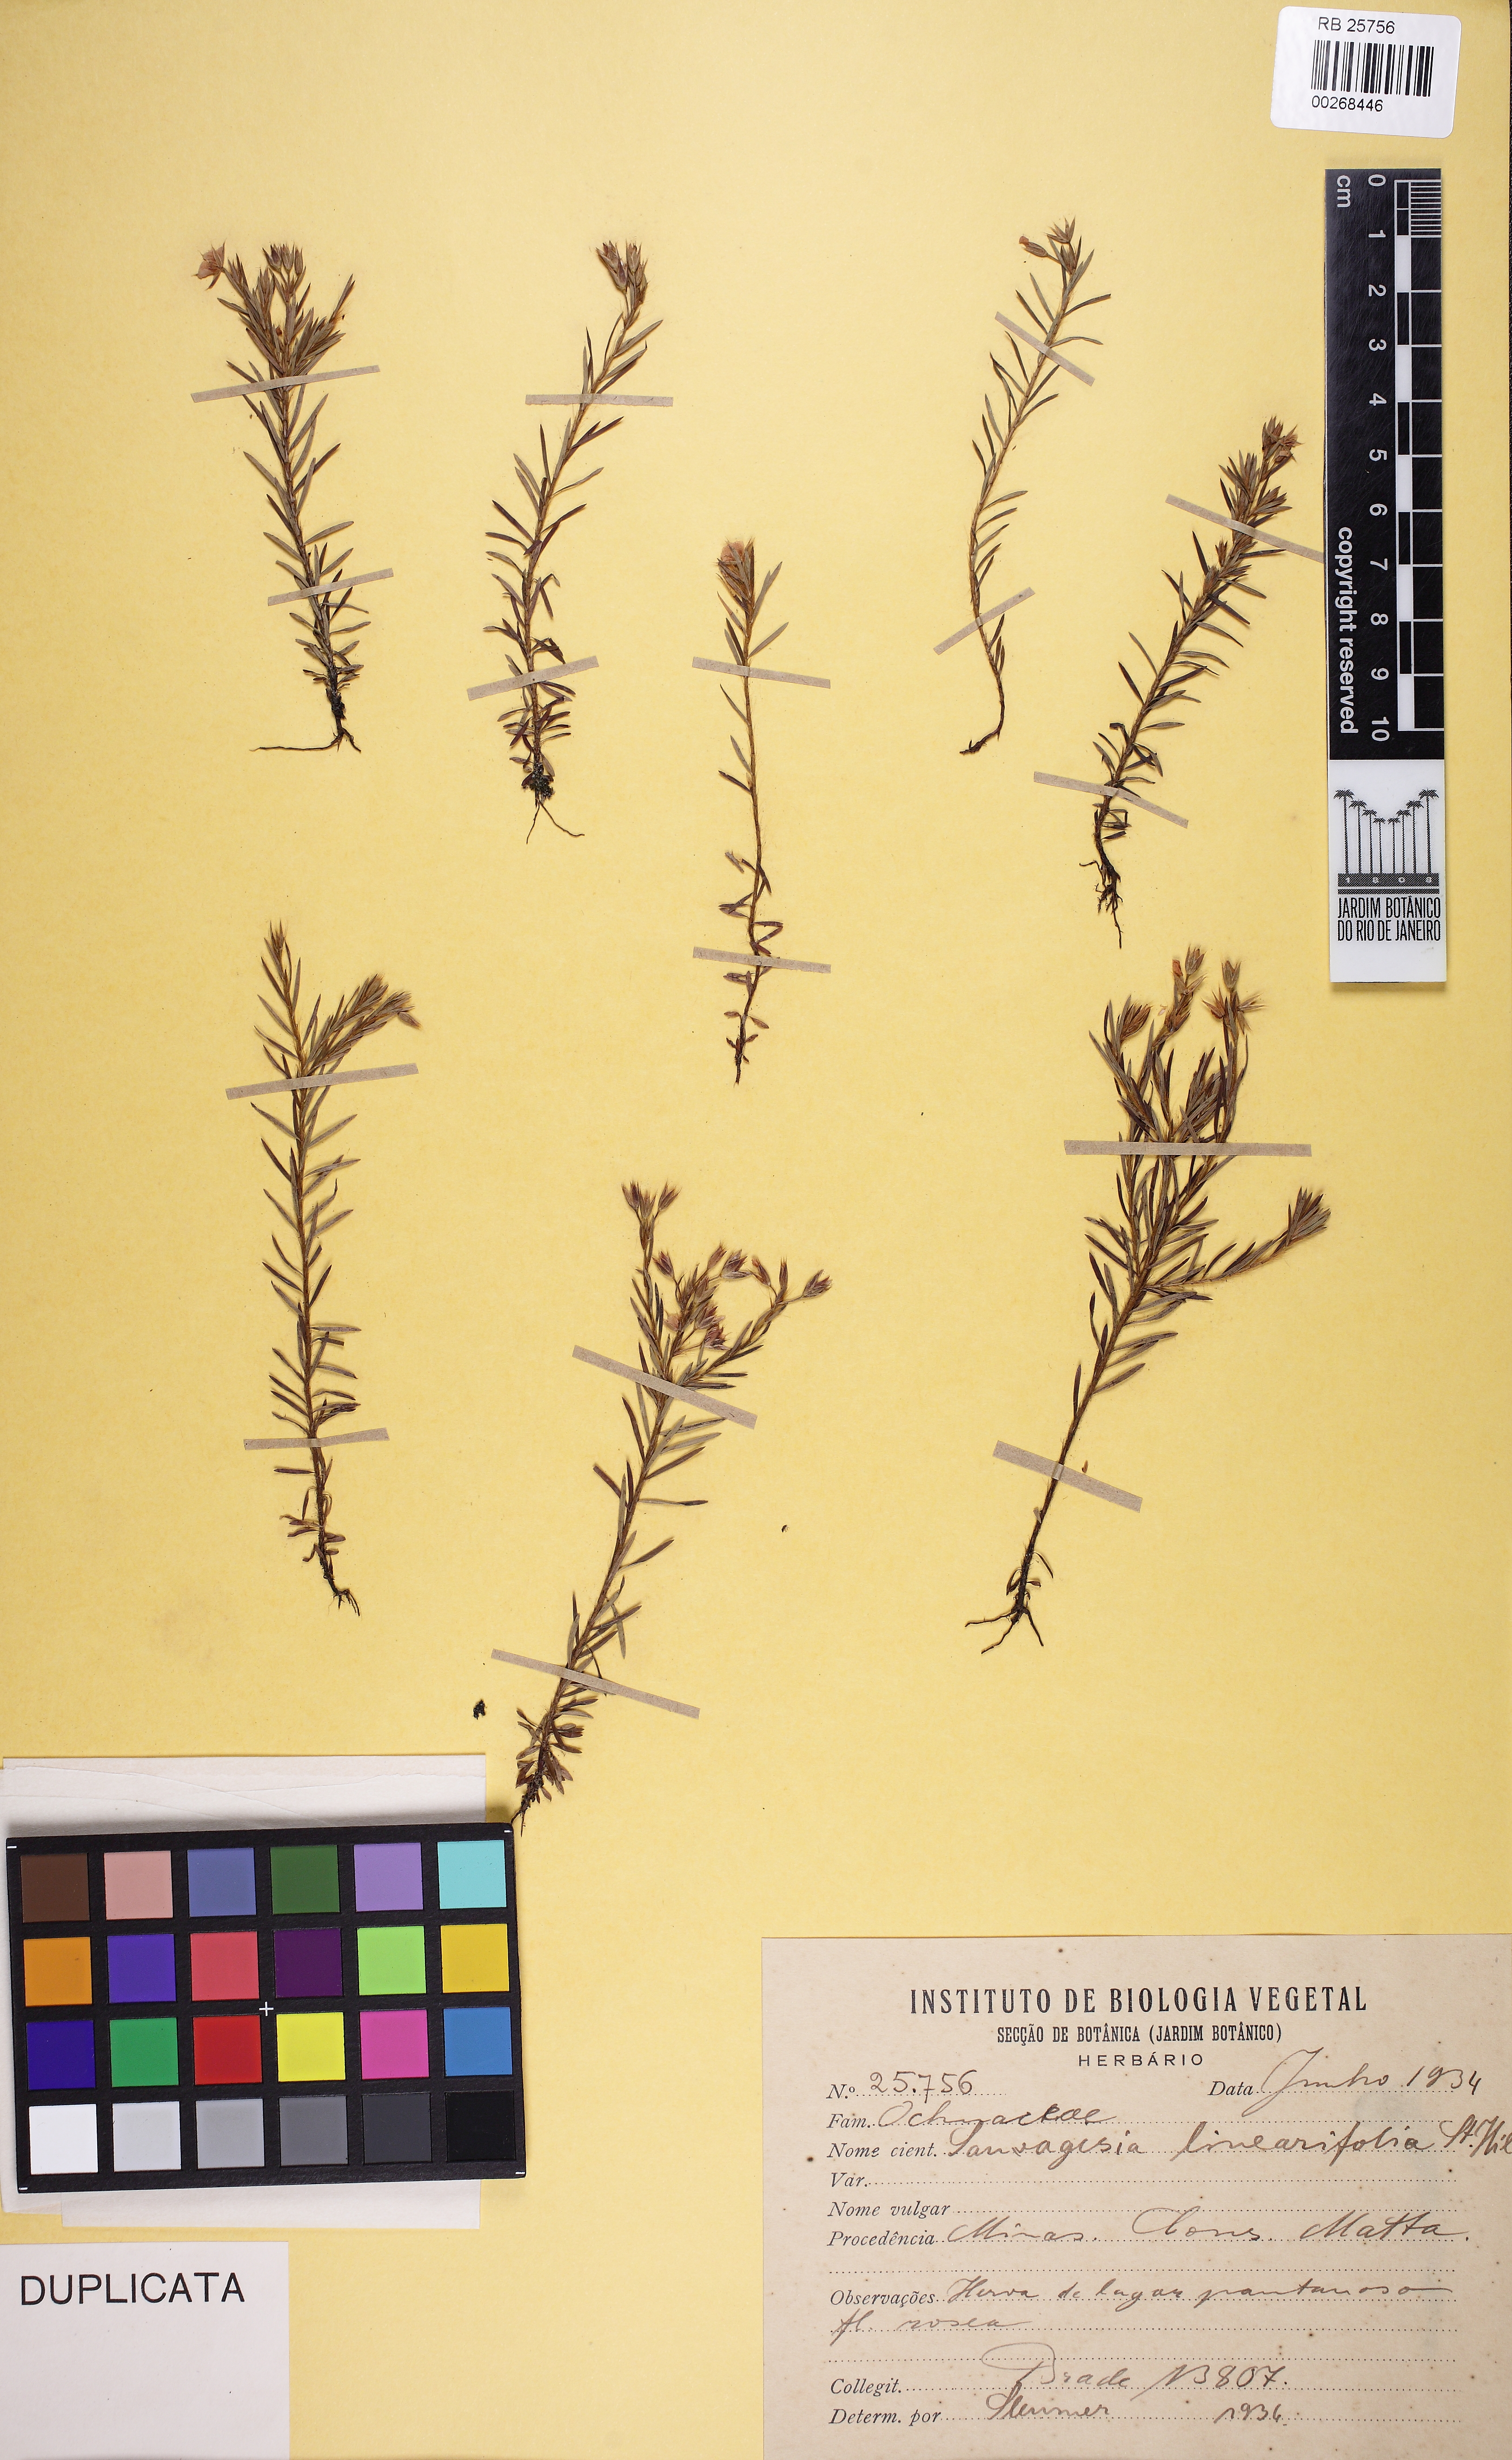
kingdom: Plantae
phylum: Tracheophyta
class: Magnoliopsida
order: Malpighiales
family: Ochnaceae
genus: Sauvagesia
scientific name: Sauvagesia linearifolia
